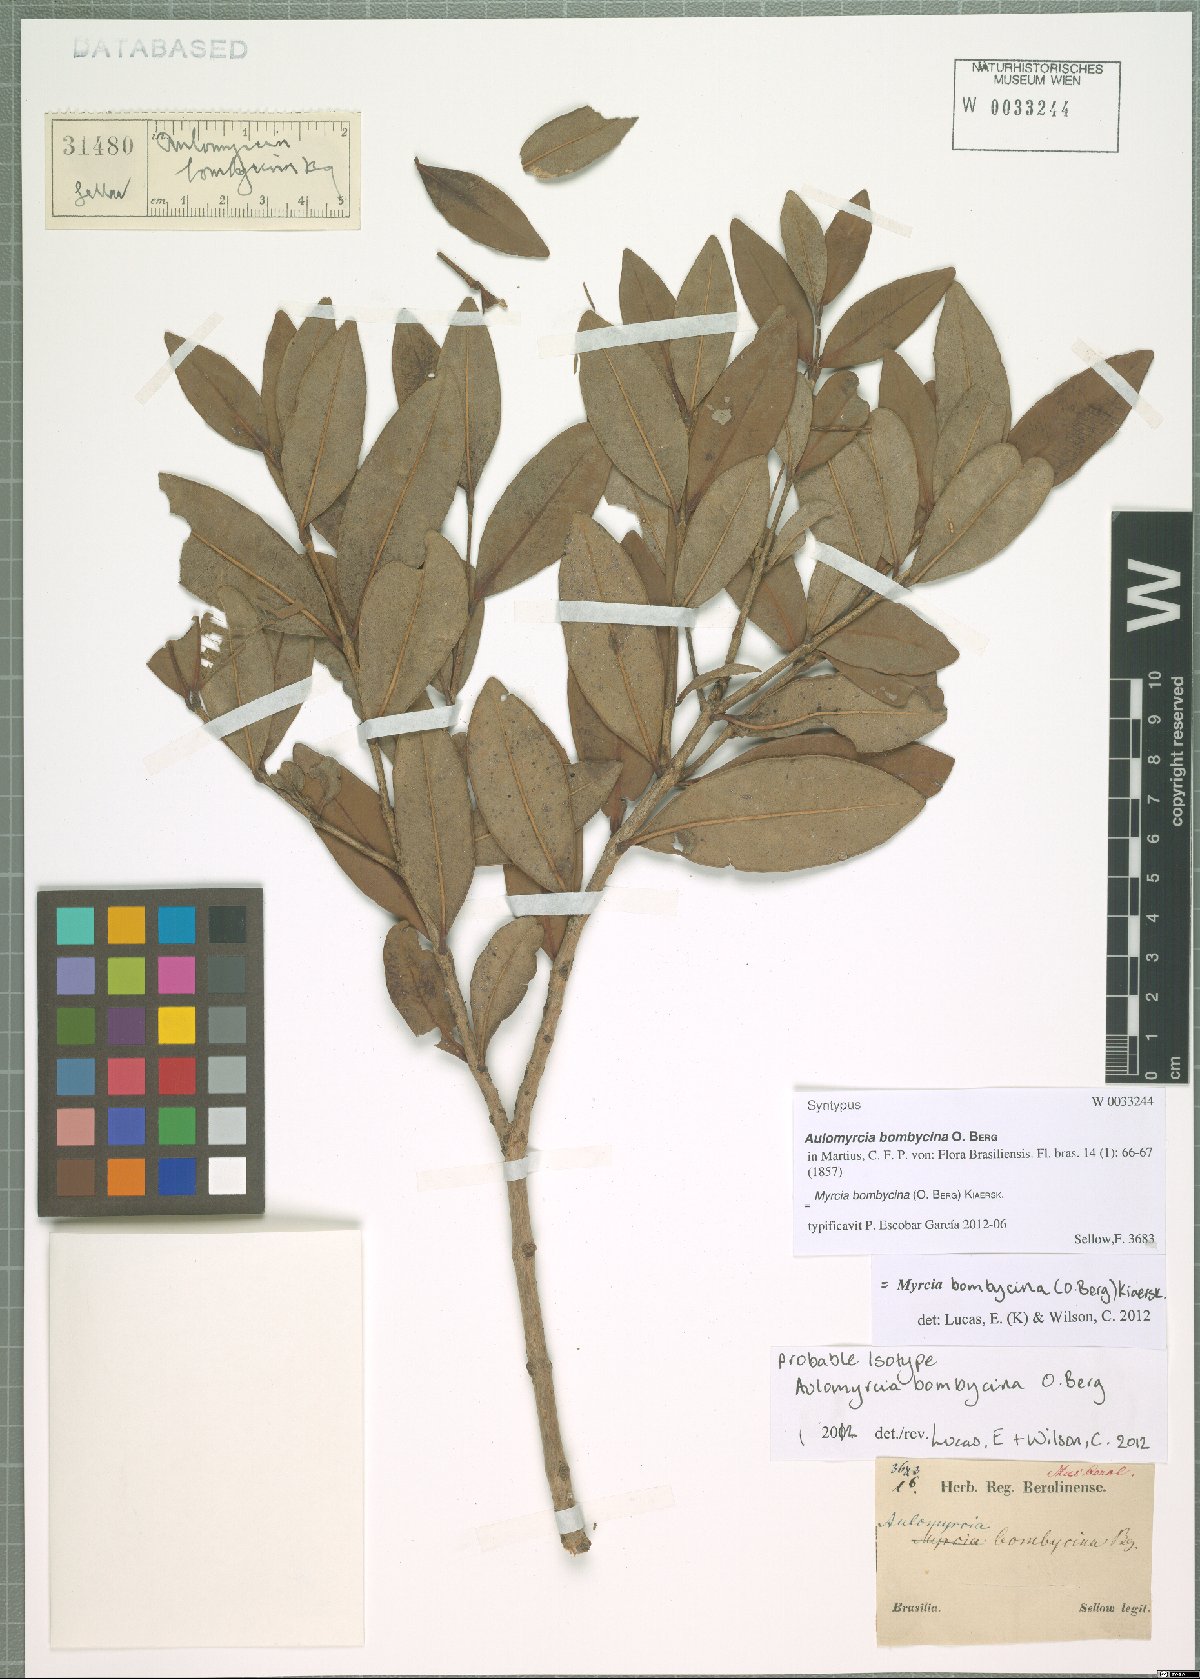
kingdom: Plantae
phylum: Tracheophyta
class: Magnoliopsida
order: Myrtales
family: Myrtaceae
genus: Myrcia
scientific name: Myrcia oblongata
